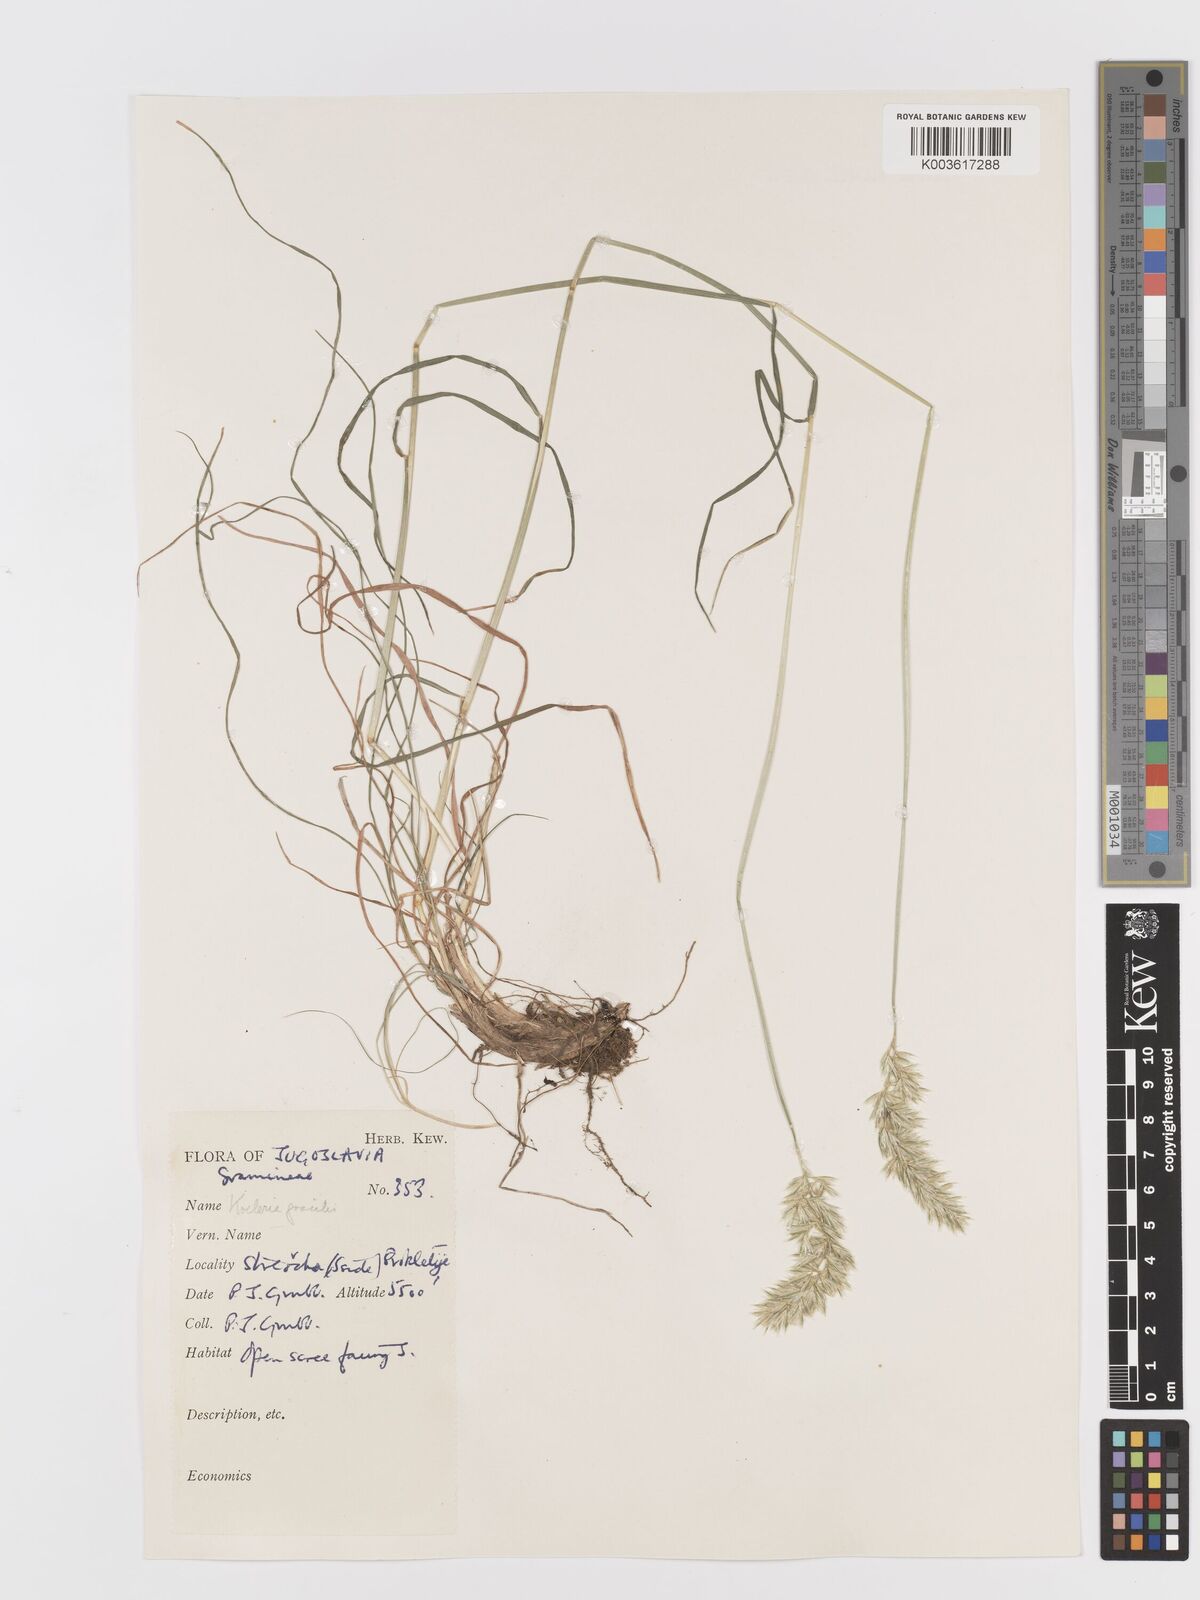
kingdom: Plantae
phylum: Tracheophyta
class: Liliopsida
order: Poales
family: Poaceae
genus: Koeleria
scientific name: Koeleria macrantha
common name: Crested hair-grass
